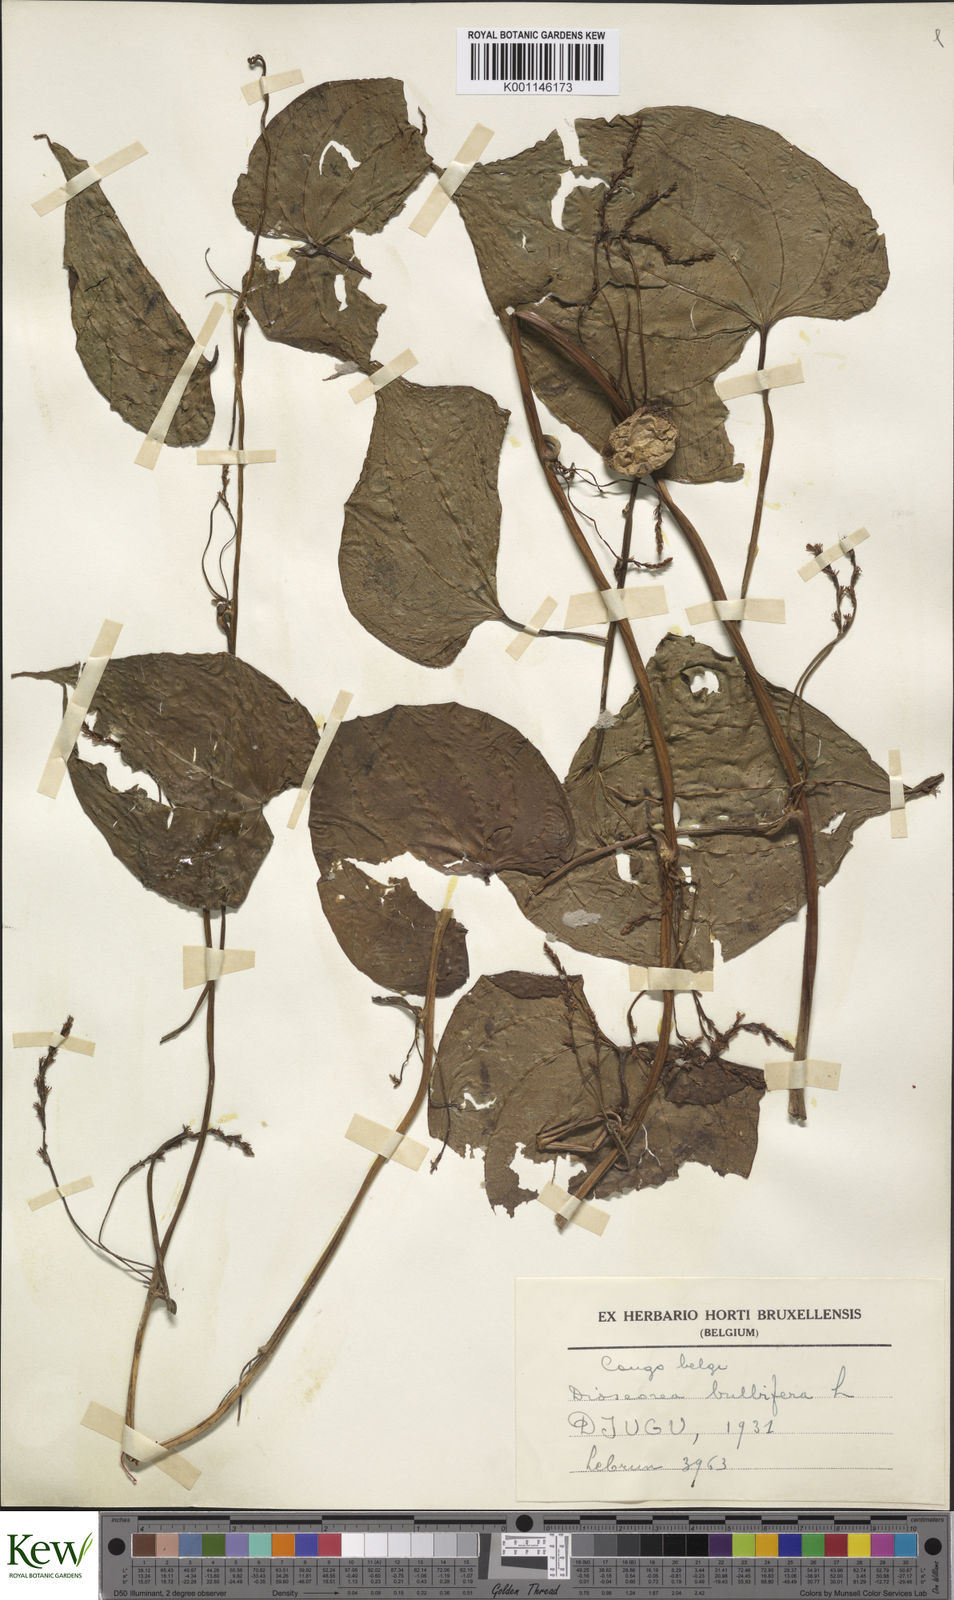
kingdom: Plantae
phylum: Tracheophyta
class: Liliopsida
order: Dioscoreales
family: Dioscoreaceae
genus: Dioscorea
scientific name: Dioscorea bulbifera
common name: Air yam
